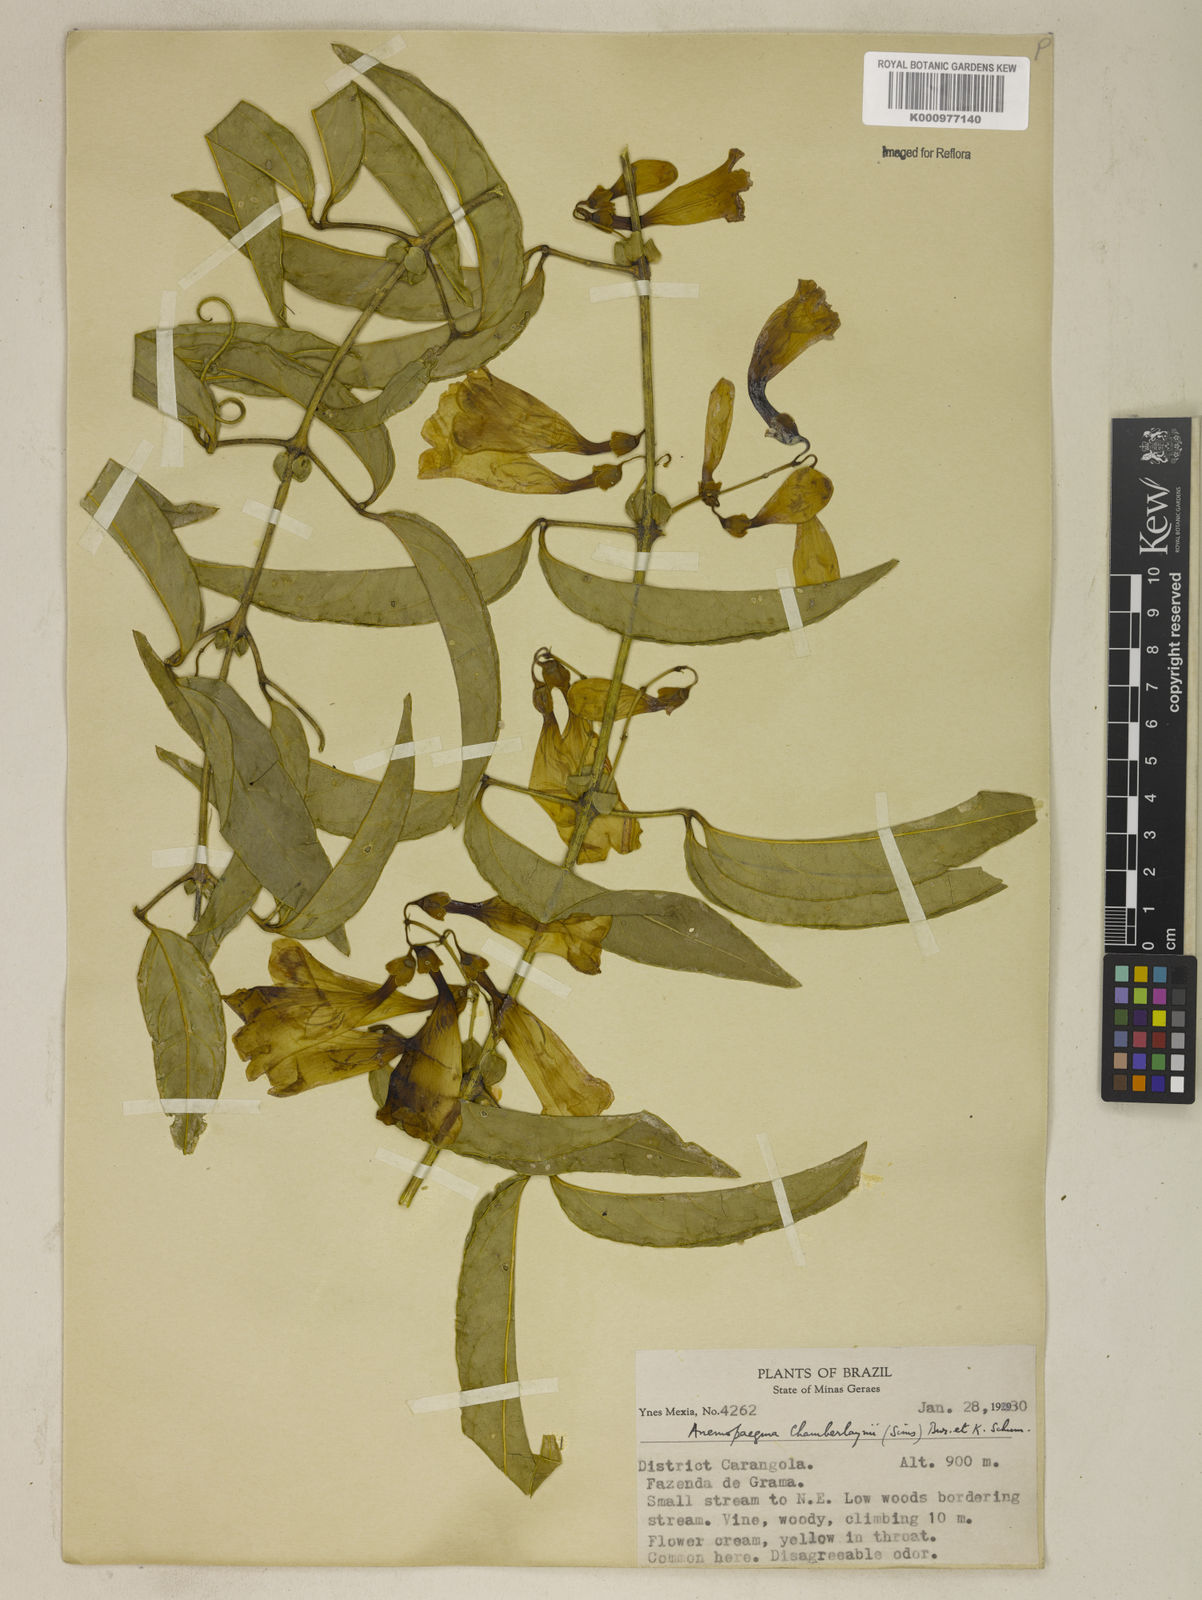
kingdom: Plantae
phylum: Tracheophyta
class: Magnoliopsida
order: Lamiales
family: Bignoniaceae
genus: Anemopaegma
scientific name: Anemopaegma chamberlaynii
